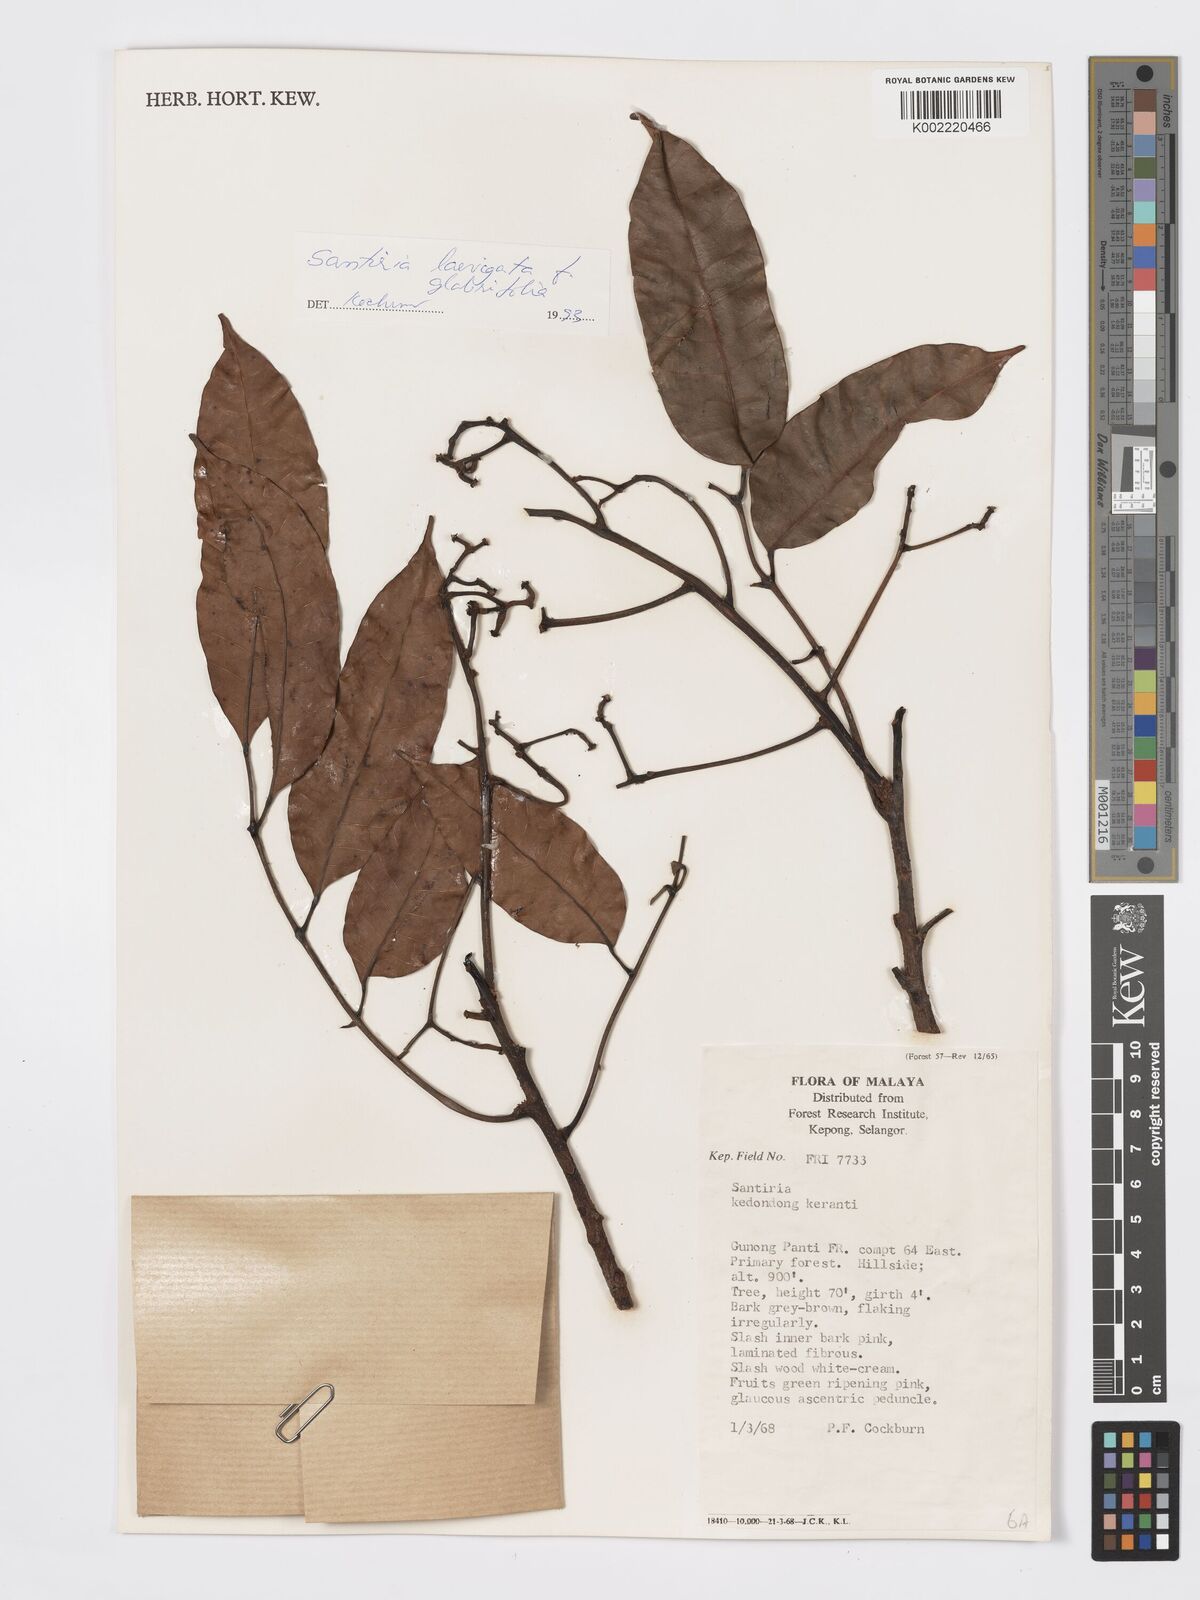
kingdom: Plantae
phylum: Tracheophyta
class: Magnoliopsida
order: Sapindales
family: Burseraceae
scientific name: Burseraceae
